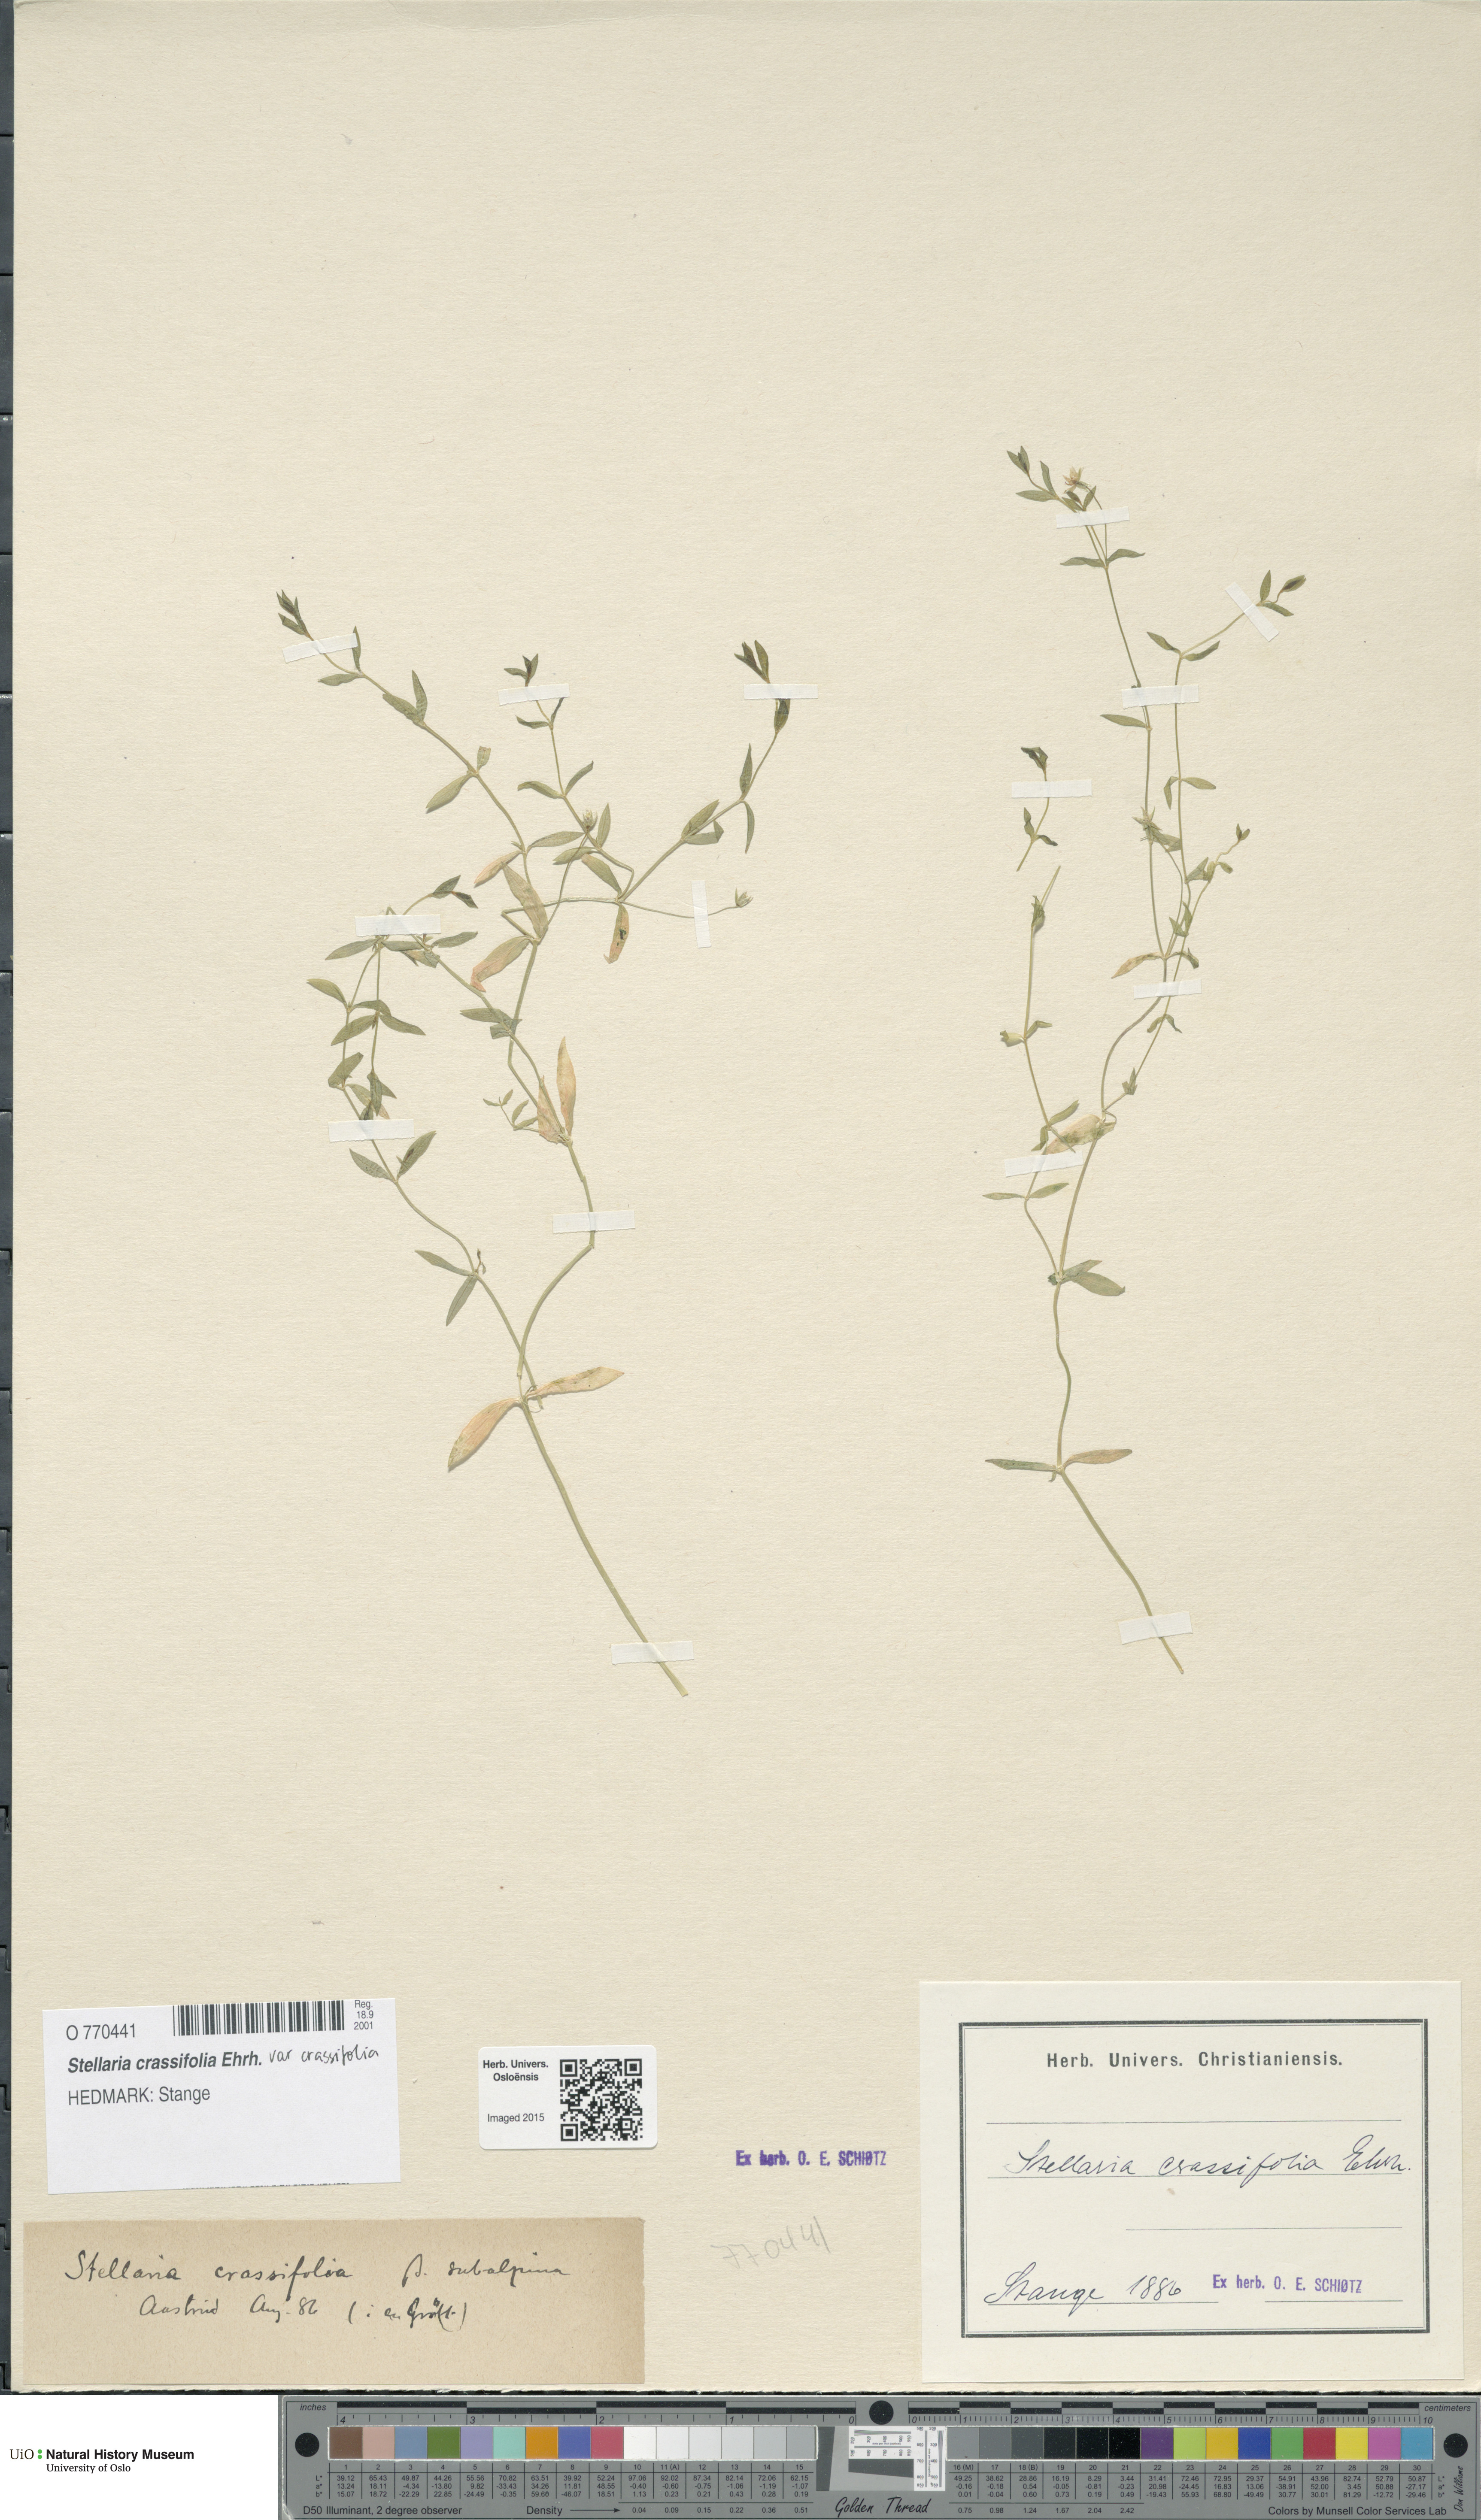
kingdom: Plantae
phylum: Tracheophyta
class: Magnoliopsida
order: Caryophyllales
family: Caryophyllaceae
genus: Stellaria
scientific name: Stellaria crassifolia
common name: Fleshy starwort
